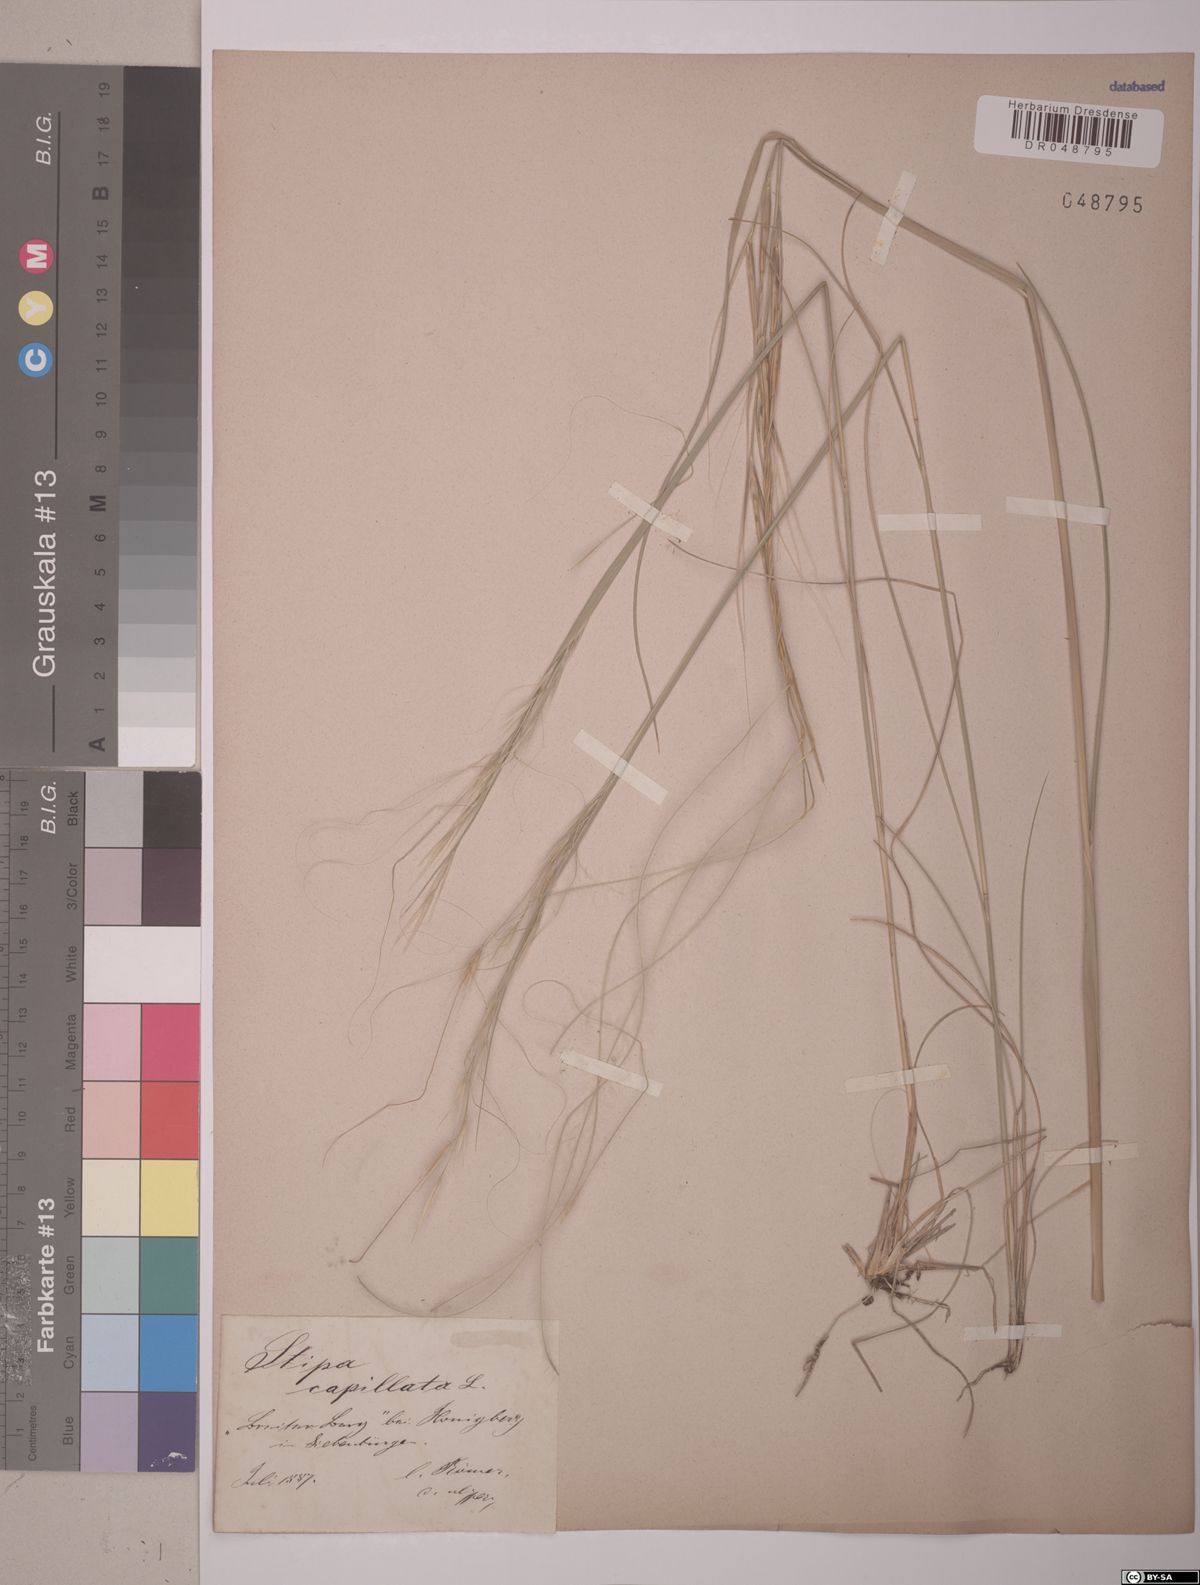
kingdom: Plantae
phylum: Tracheophyta
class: Liliopsida
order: Poales
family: Poaceae
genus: Stipa
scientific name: Stipa capillata
